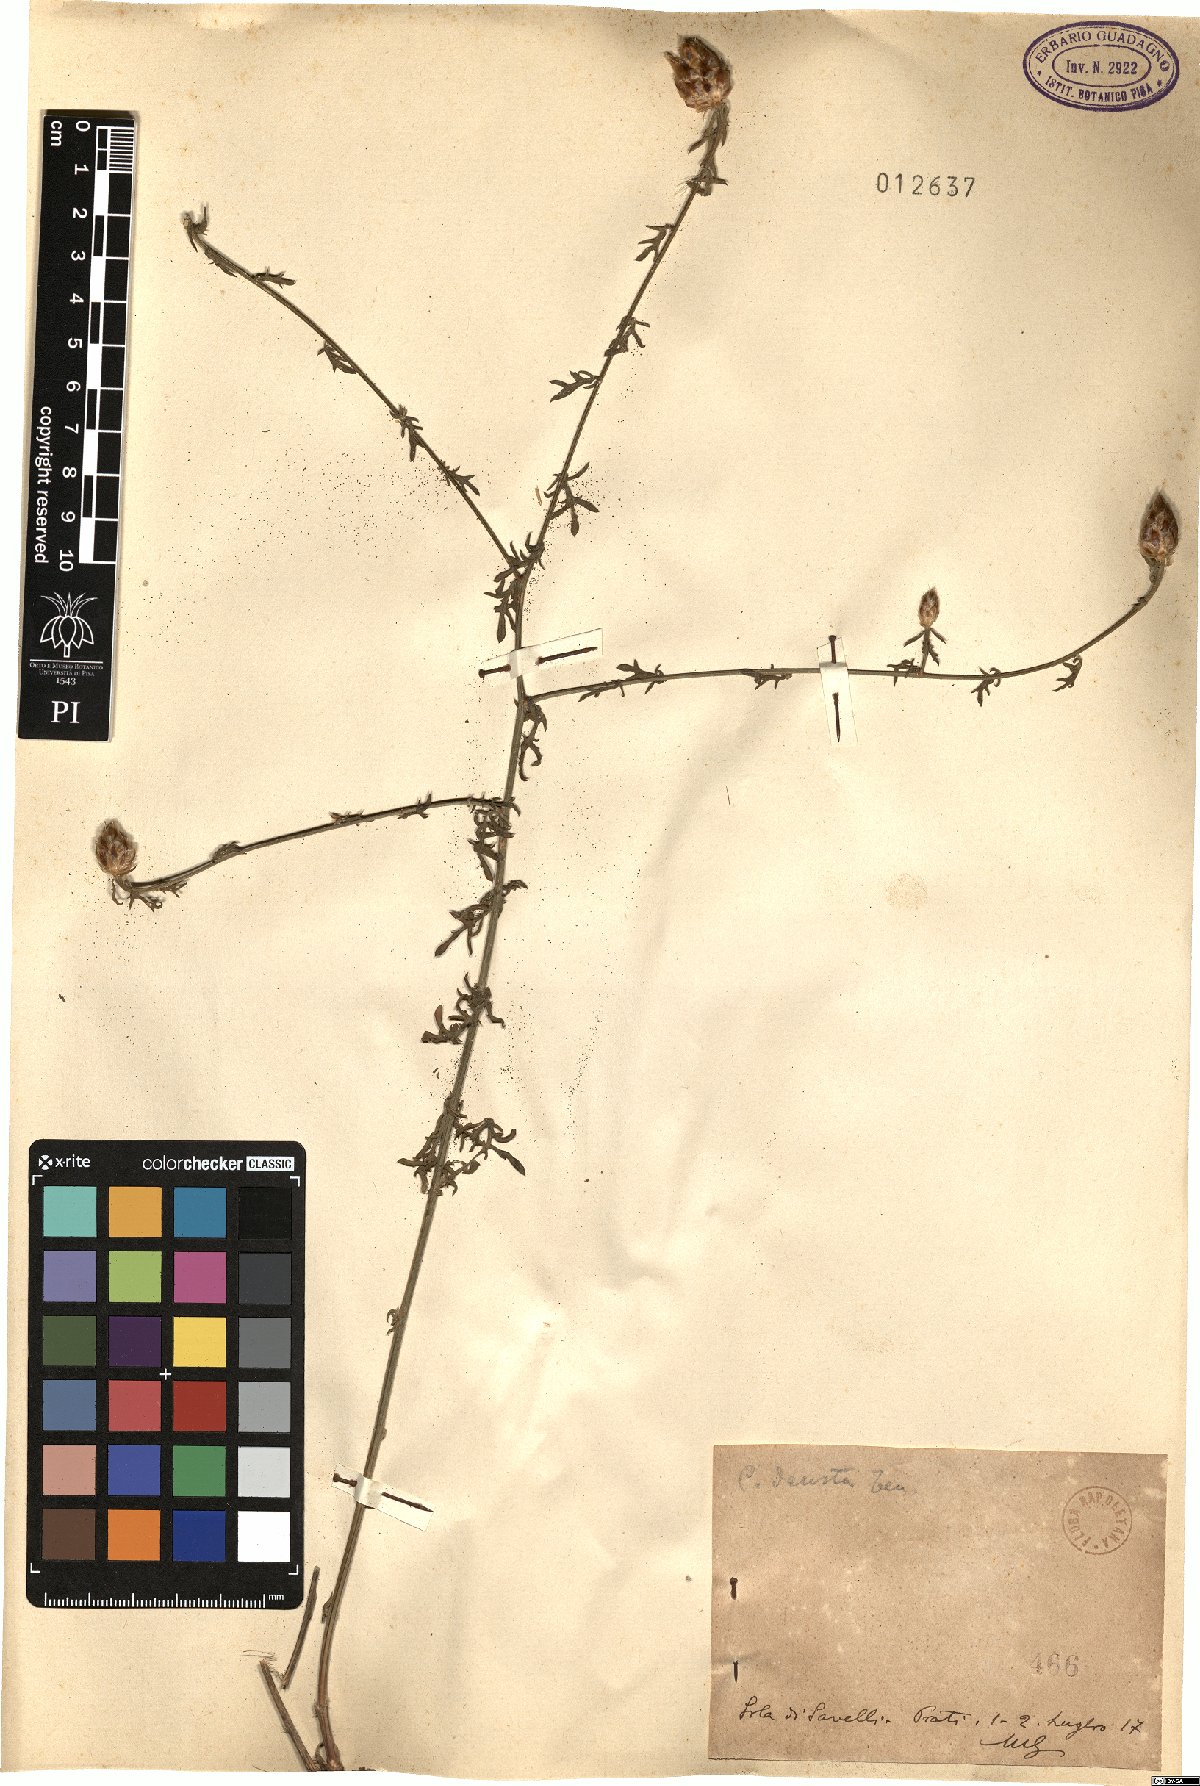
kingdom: Plantae
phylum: Tracheophyta
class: Magnoliopsida
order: Asterales
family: Asteraceae
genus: Centaurea
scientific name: Centaurea deusta
